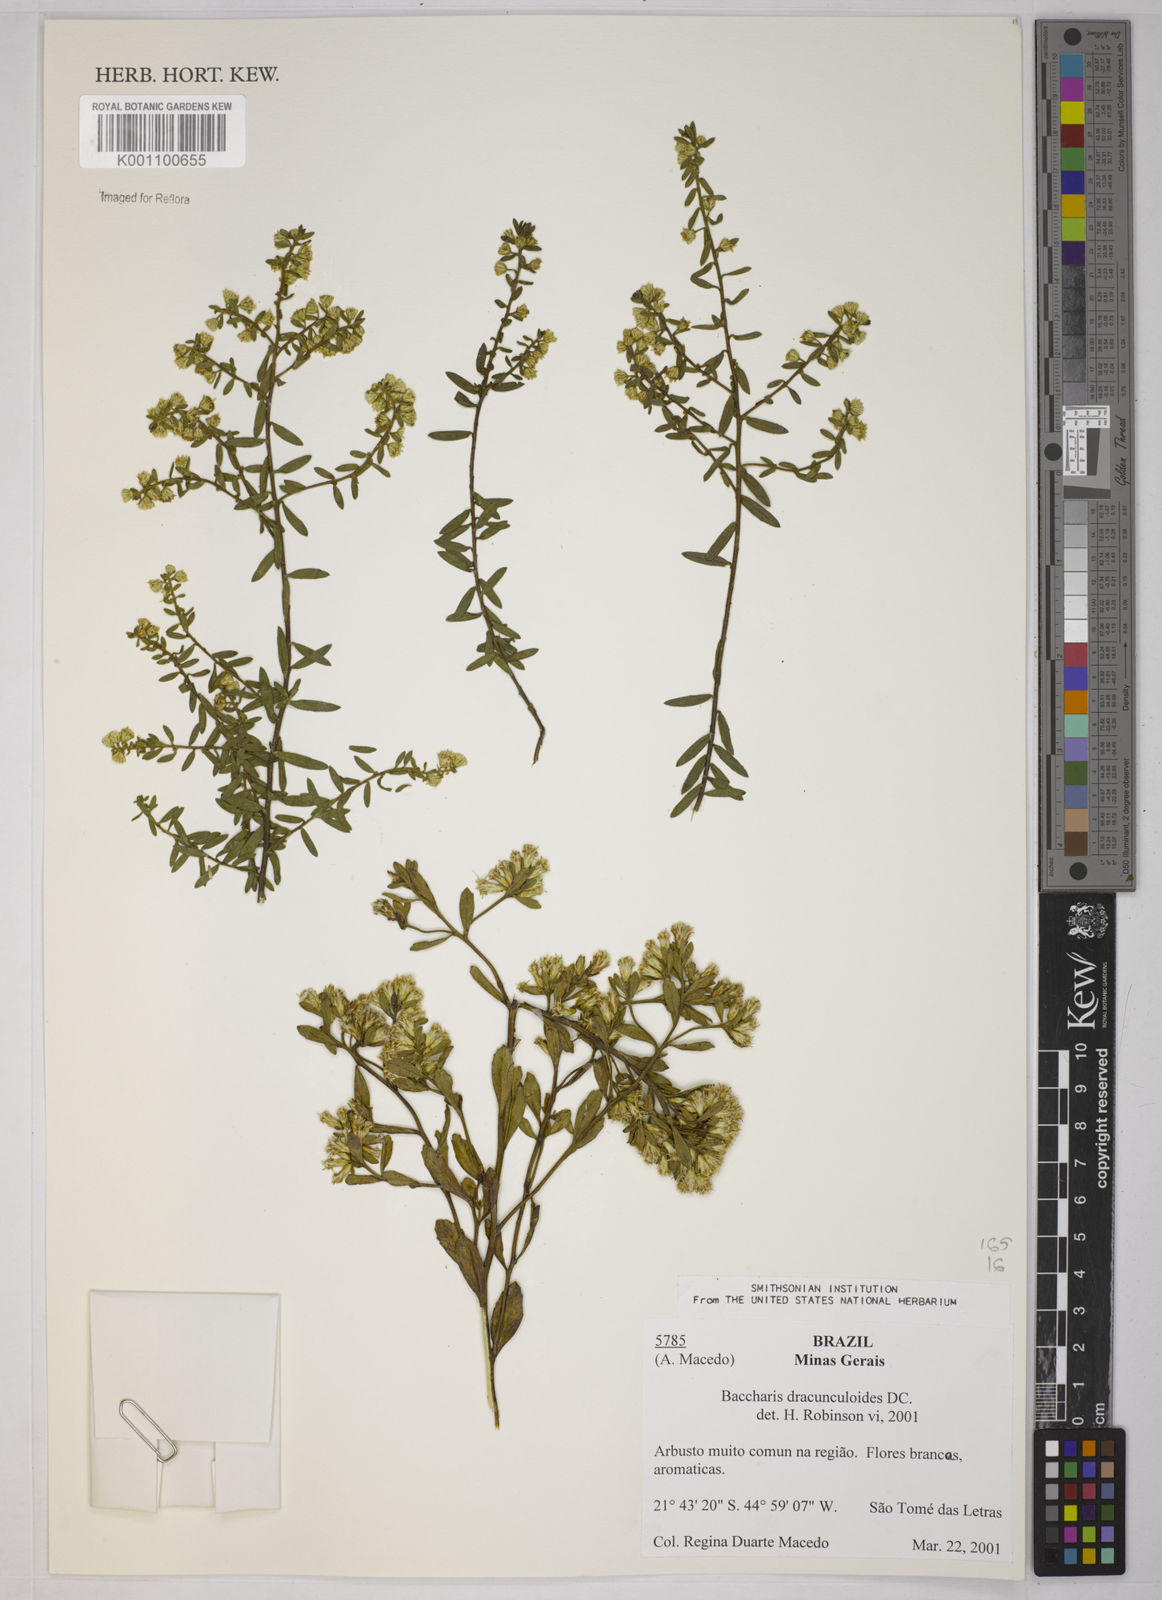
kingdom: Plantae
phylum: Tracheophyta
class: Magnoliopsida
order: Asterales
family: Asteraceae
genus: Baccharis
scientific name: Baccharis dracunculifolia
